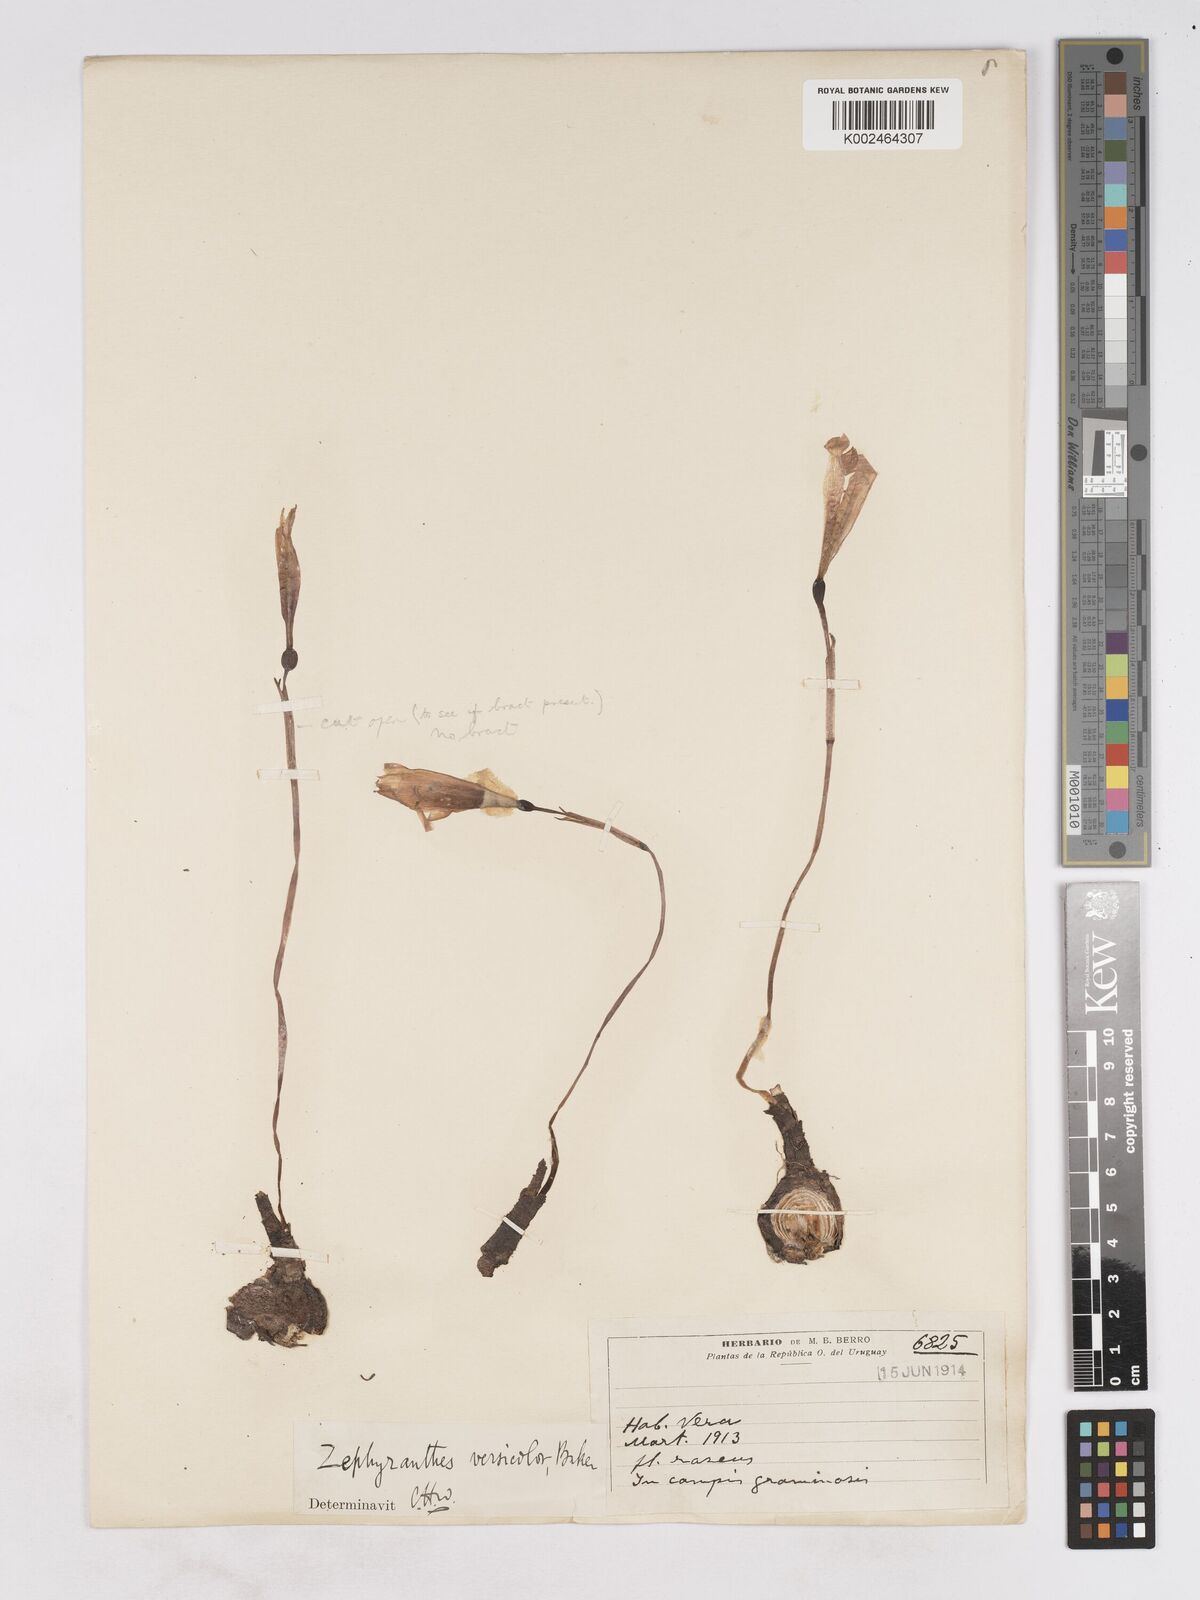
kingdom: Plantae
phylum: Tracheophyta
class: Liliopsida
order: Asparagales
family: Amaryllidaceae
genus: Zephyranthes
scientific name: Zephyranthes versicolor
